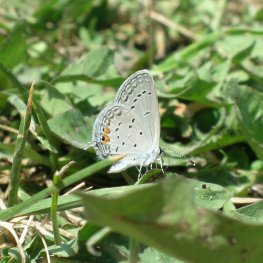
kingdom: Animalia
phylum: Arthropoda
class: Insecta
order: Lepidoptera
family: Lycaenidae
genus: Elkalyce
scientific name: Elkalyce comyntas
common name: Eastern Tailed-Blue
